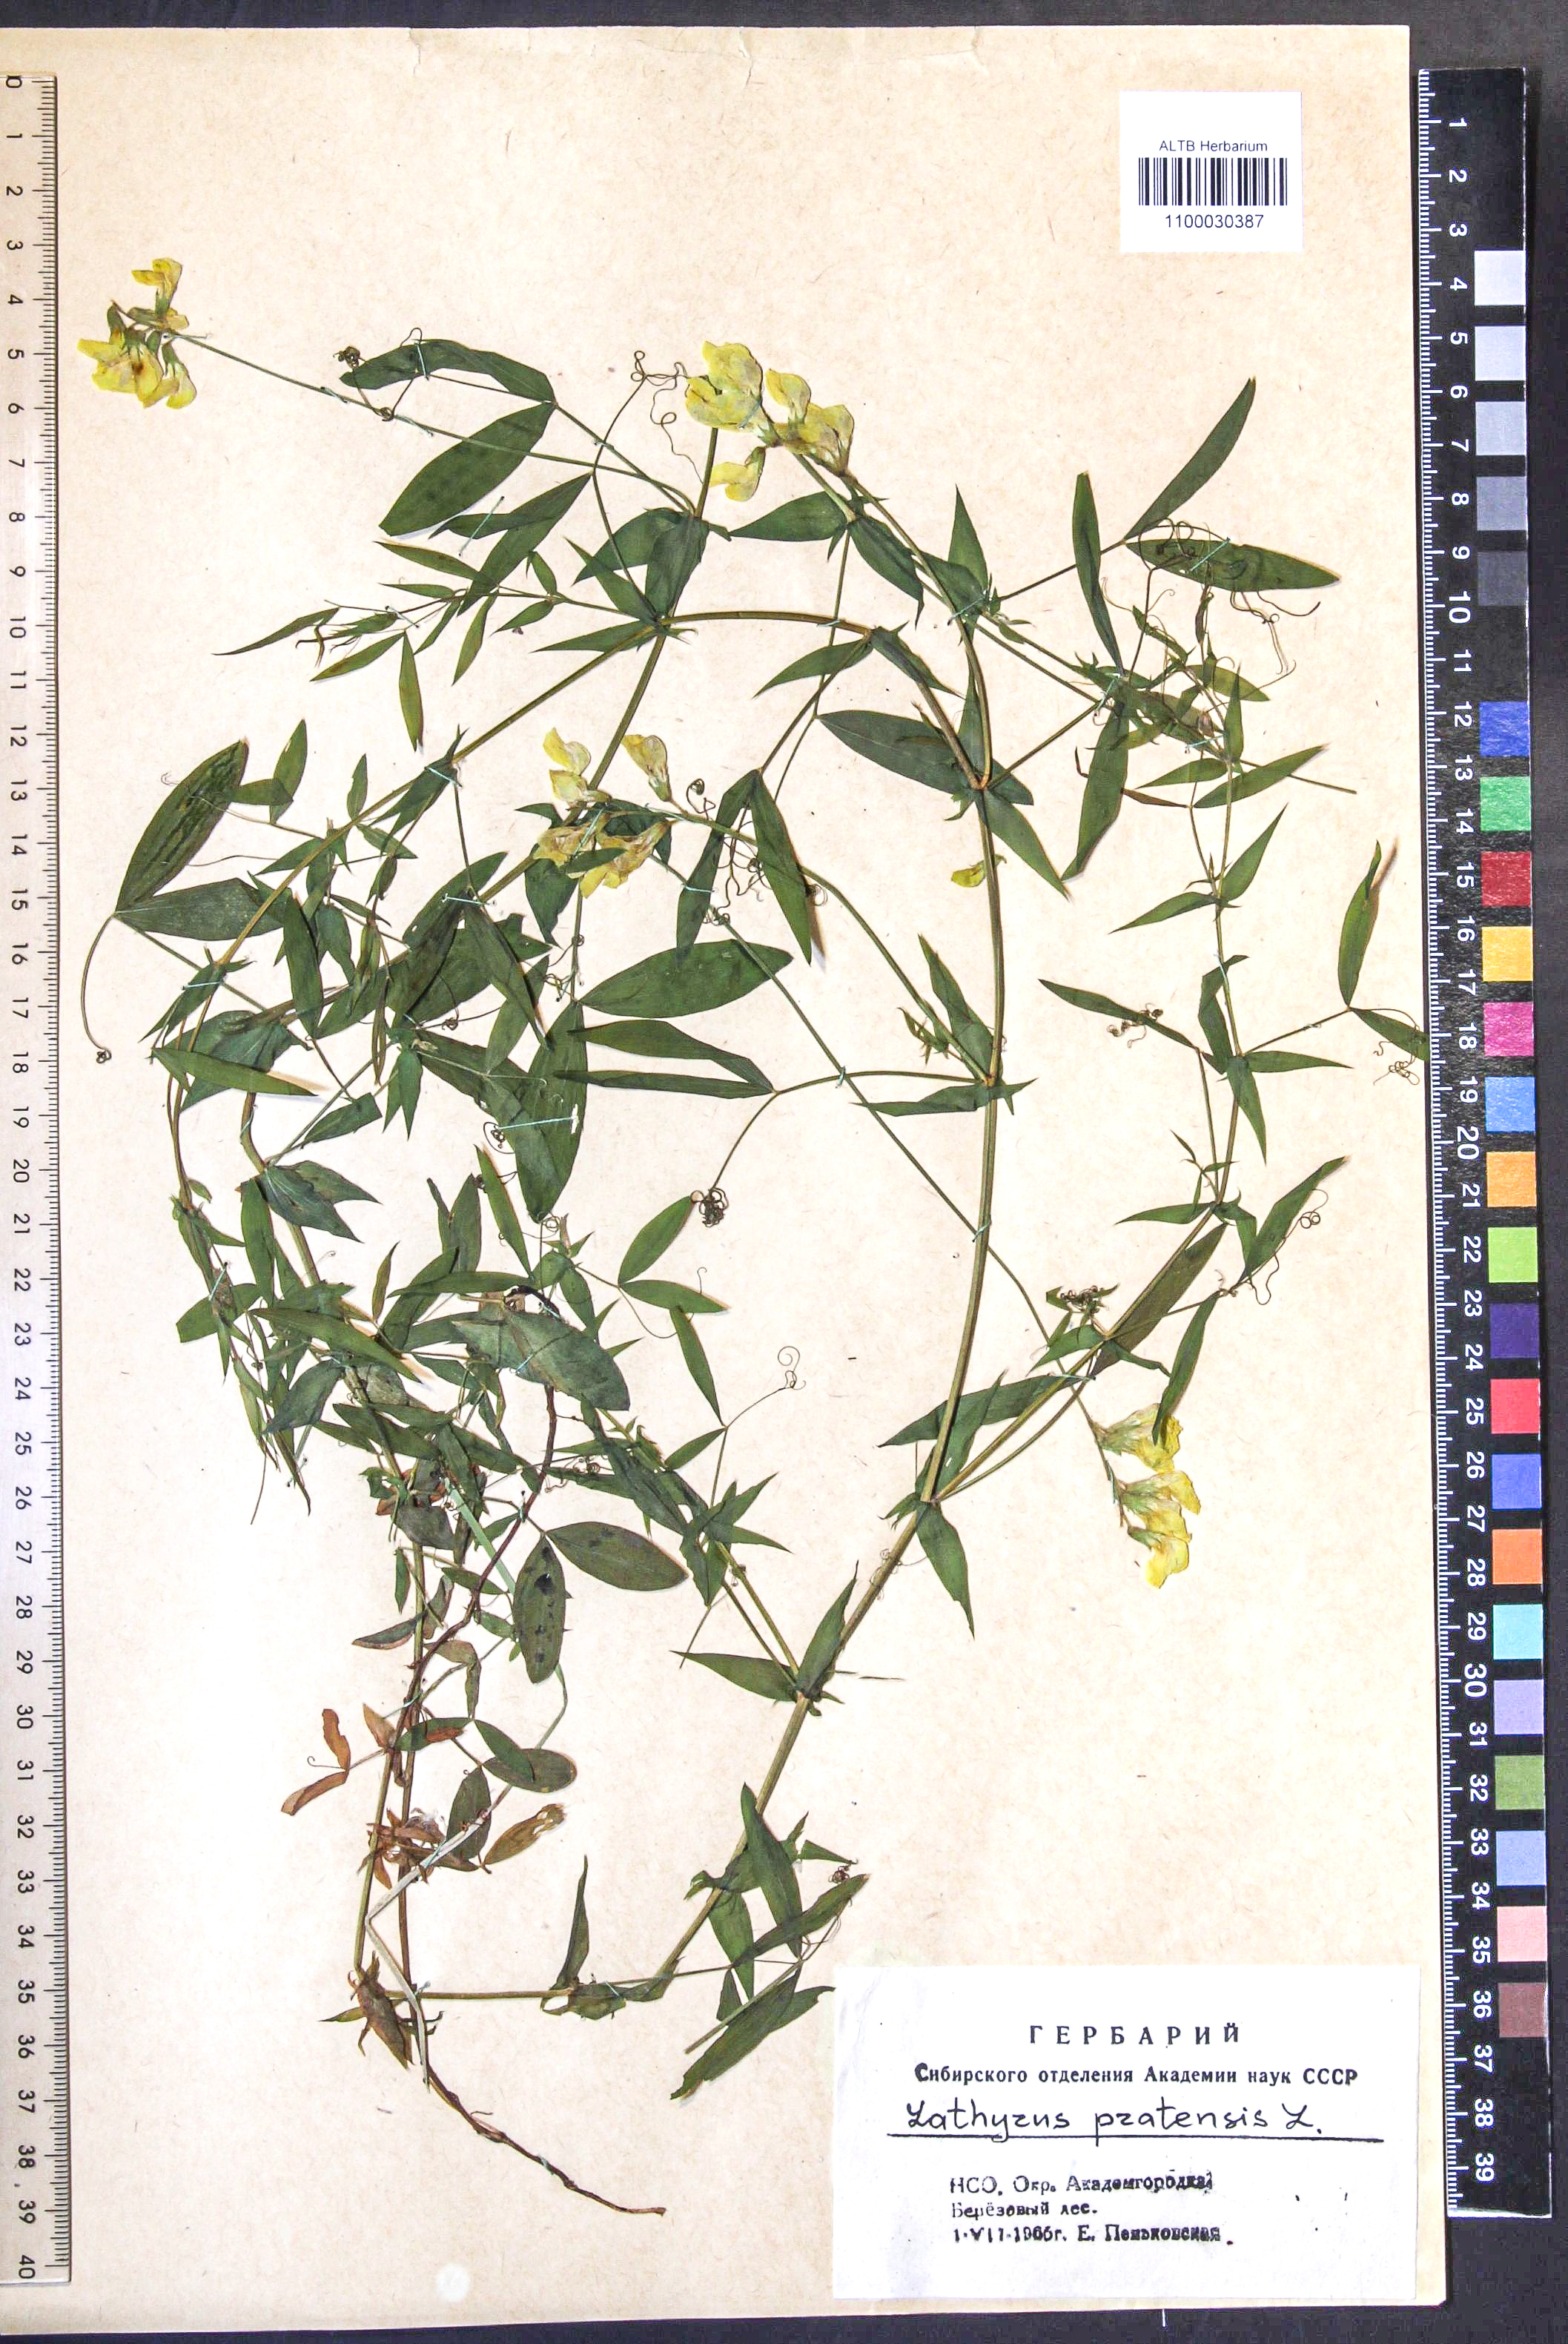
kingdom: Plantae
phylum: Tracheophyta
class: Magnoliopsida
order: Fabales
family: Fabaceae
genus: Lathyrus
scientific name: Lathyrus pratensis
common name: Meadow vetchling
